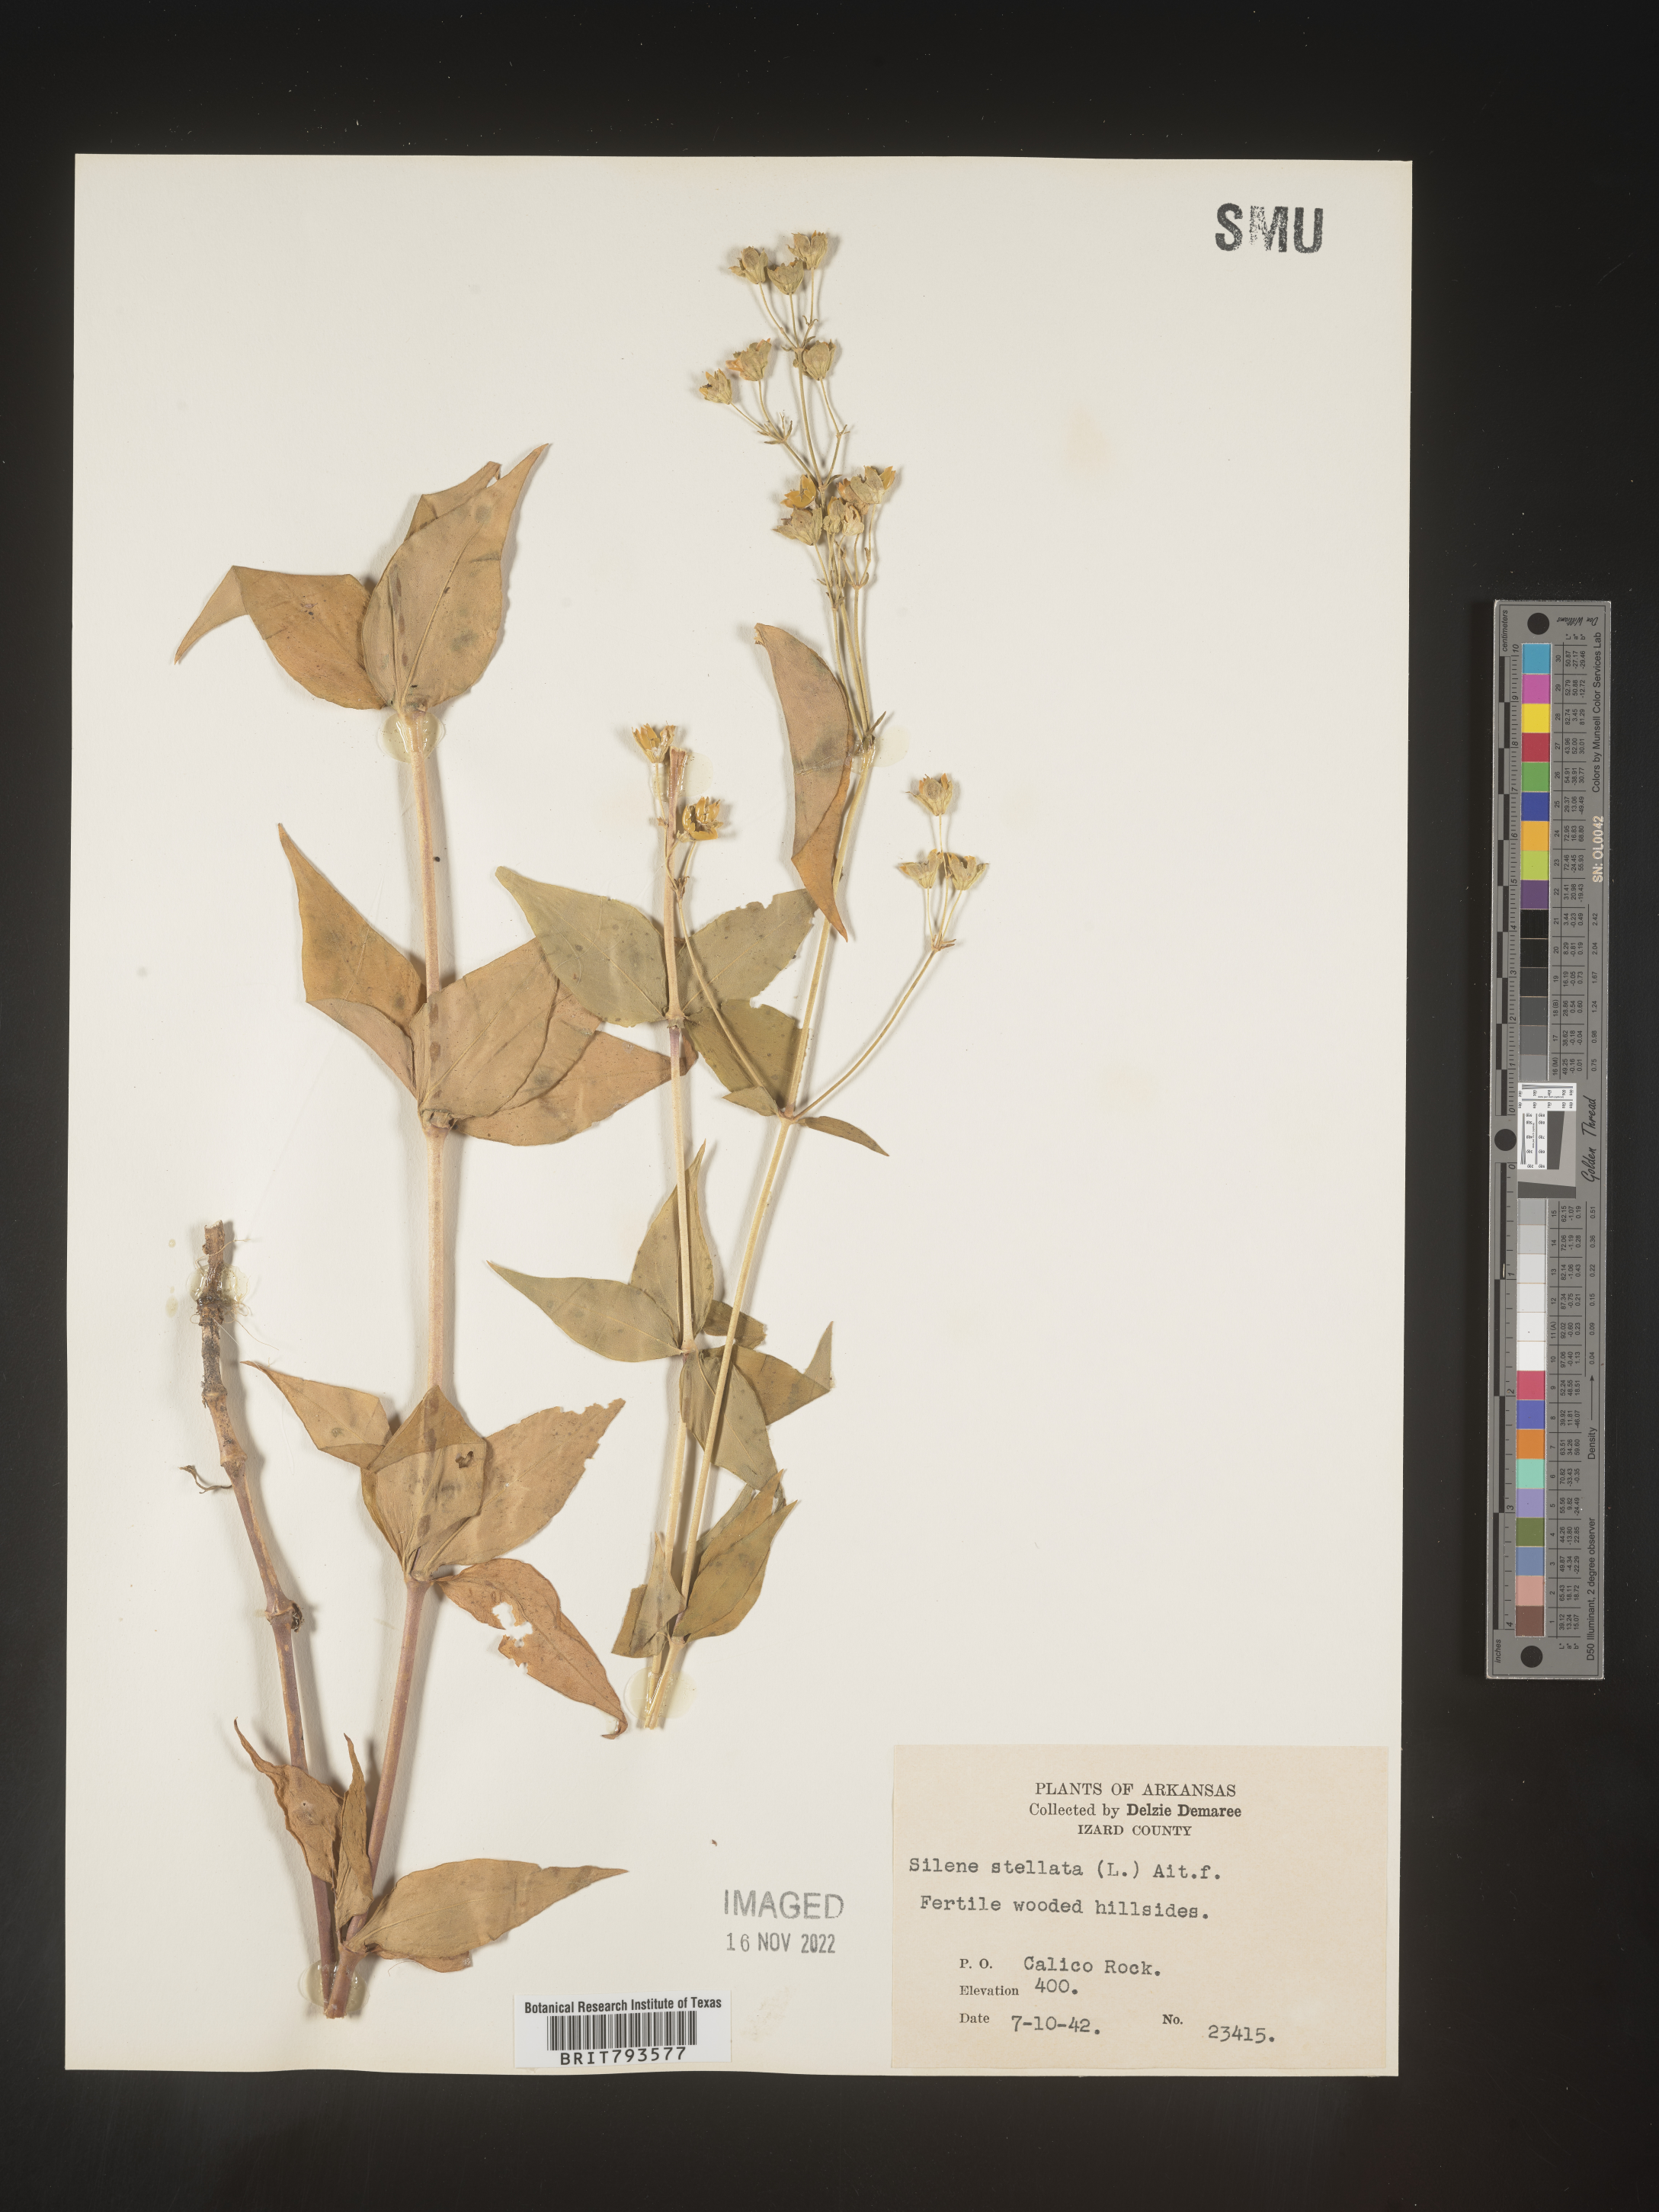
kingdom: Plantae
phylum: Tracheophyta
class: Magnoliopsida
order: Caryophyllales
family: Caryophyllaceae
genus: Silene
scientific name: Silene stellata
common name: Starry campion
